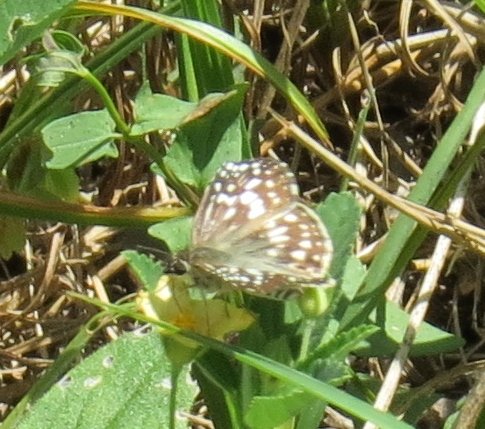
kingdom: Animalia
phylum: Arthropoda
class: Insecta
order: Lepidoptera
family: Hesperiidae
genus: Pyrgus
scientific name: Pyrgus oileus
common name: Tropical Checkered-Skipper
